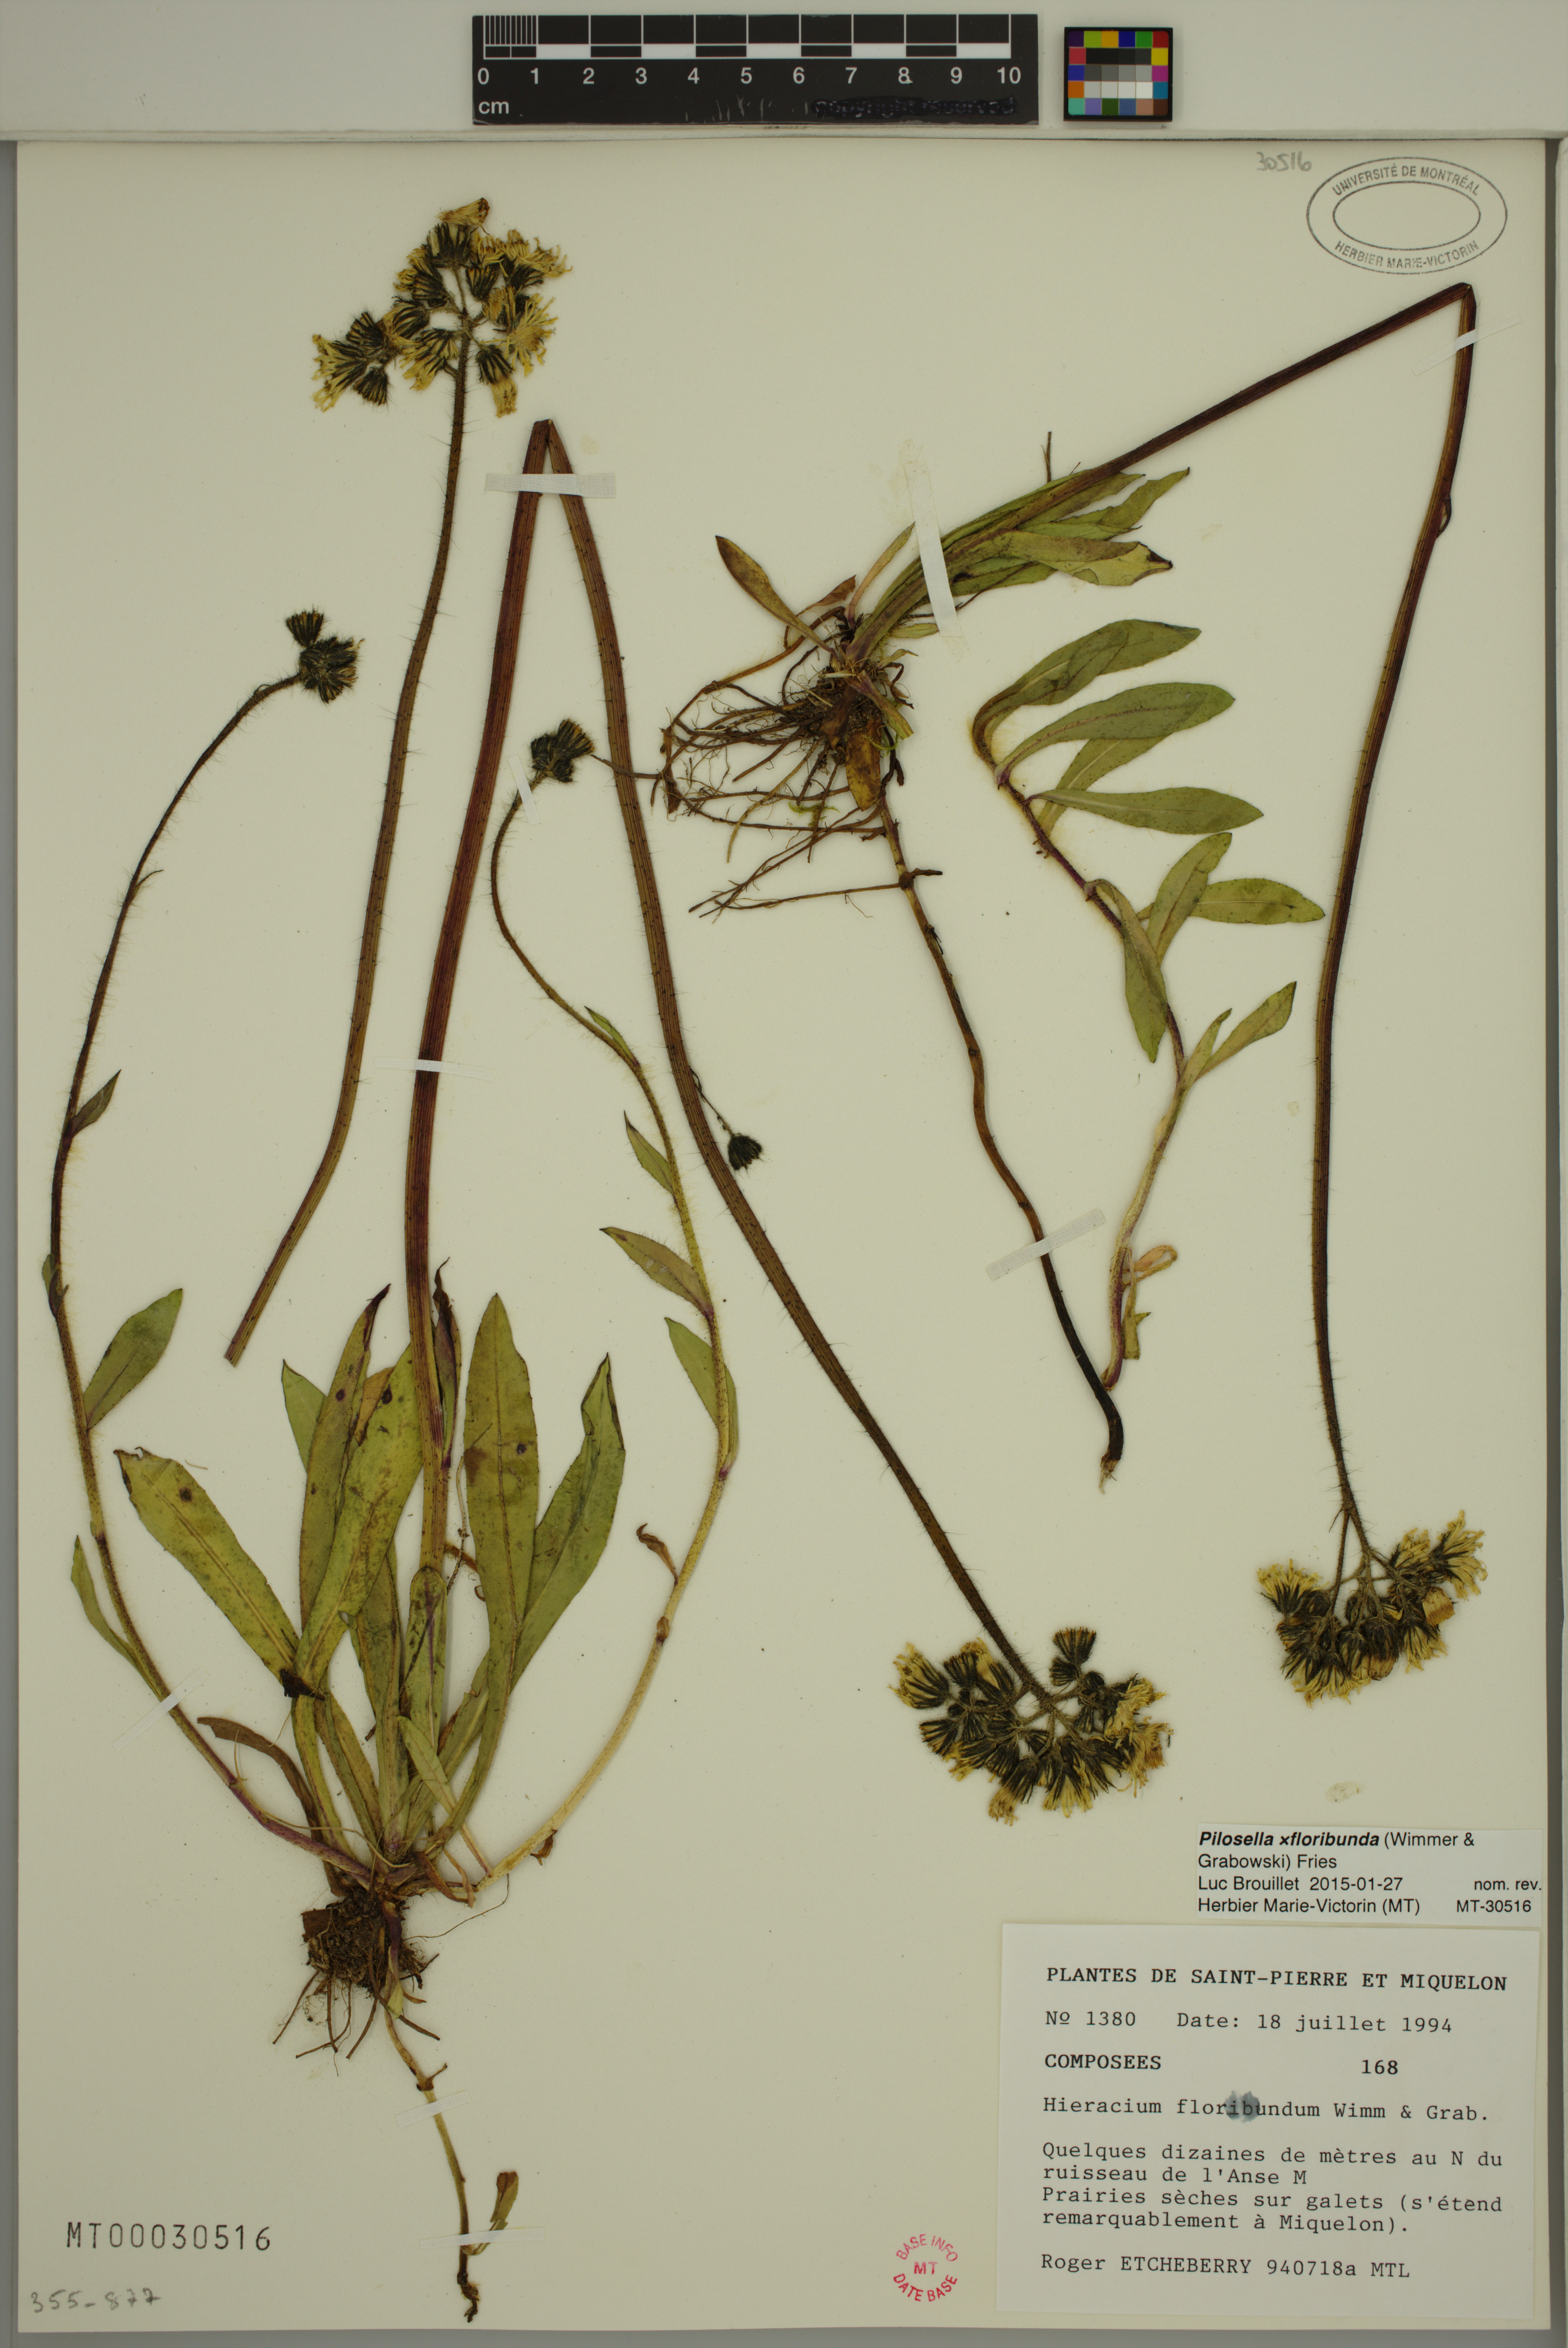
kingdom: Plantae
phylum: Tracheophyta
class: Magnoliopsida
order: Asterales
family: Asteraceae
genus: Pilosella
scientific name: Pilosella floribunda
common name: Glaucous hawkweed
